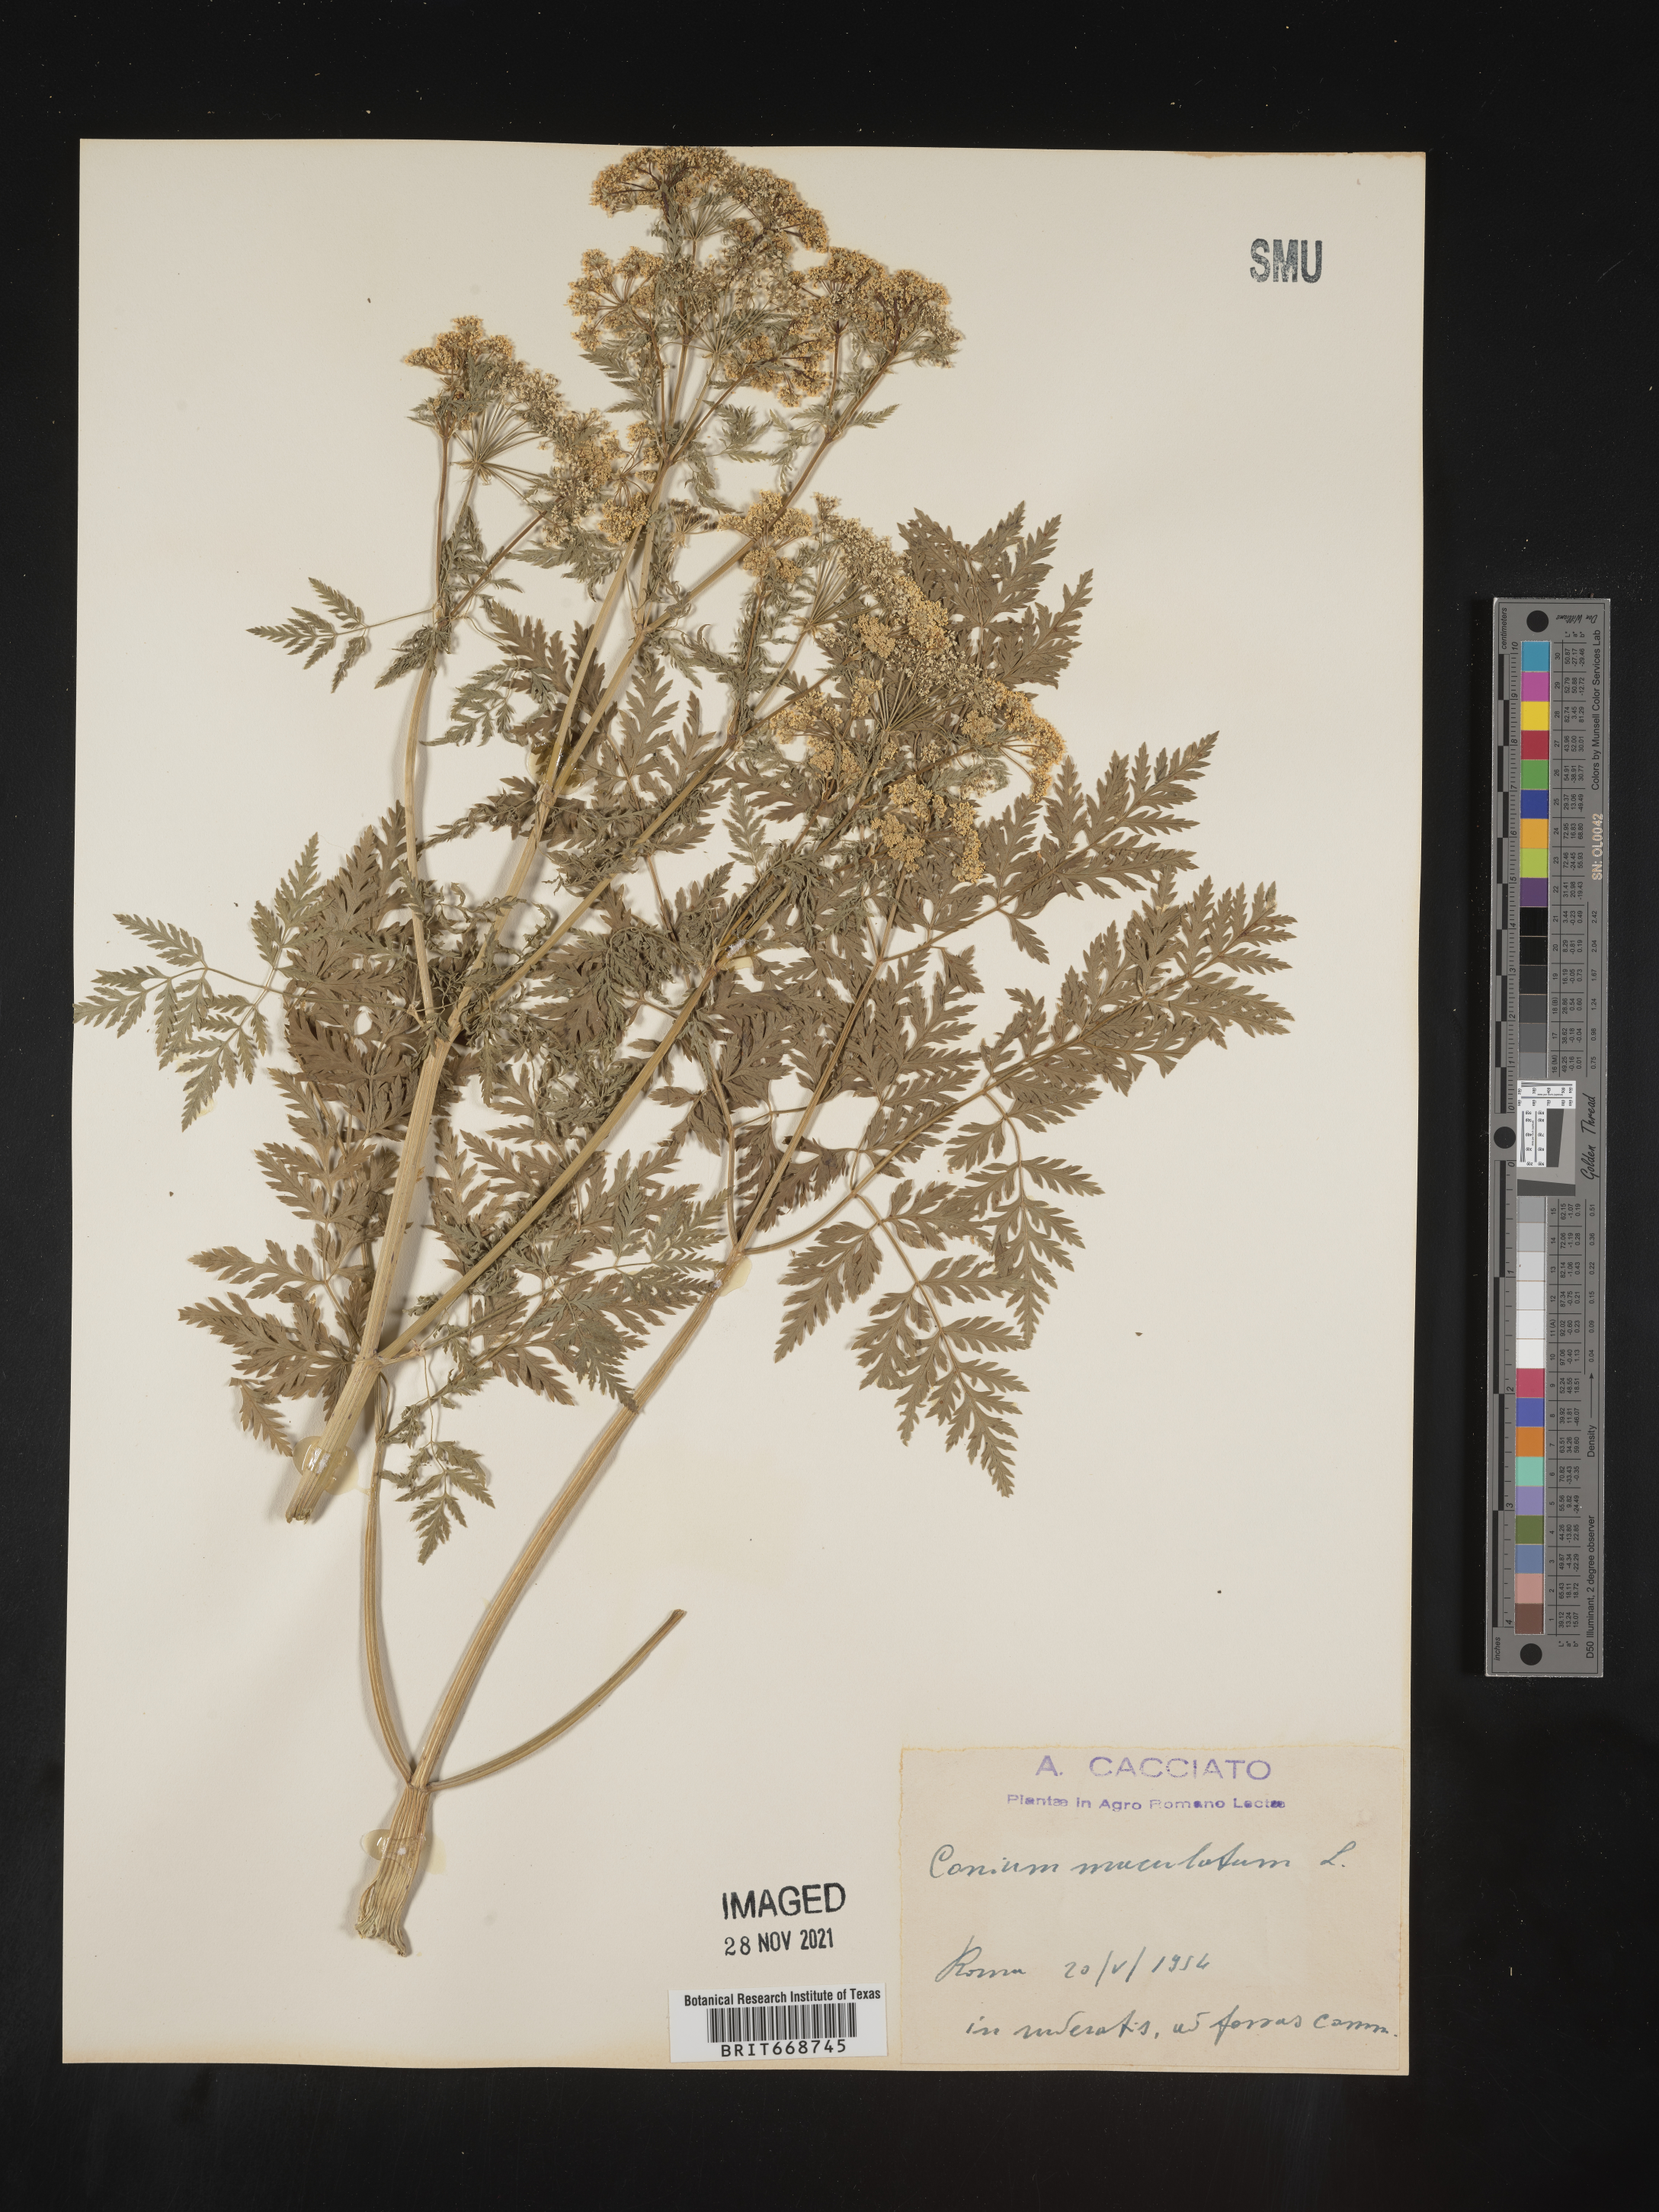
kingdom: Plantae
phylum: Tracheophyta
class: Magnoliopsida
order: Apiales
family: Apiaceae
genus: Conium
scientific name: Conium
